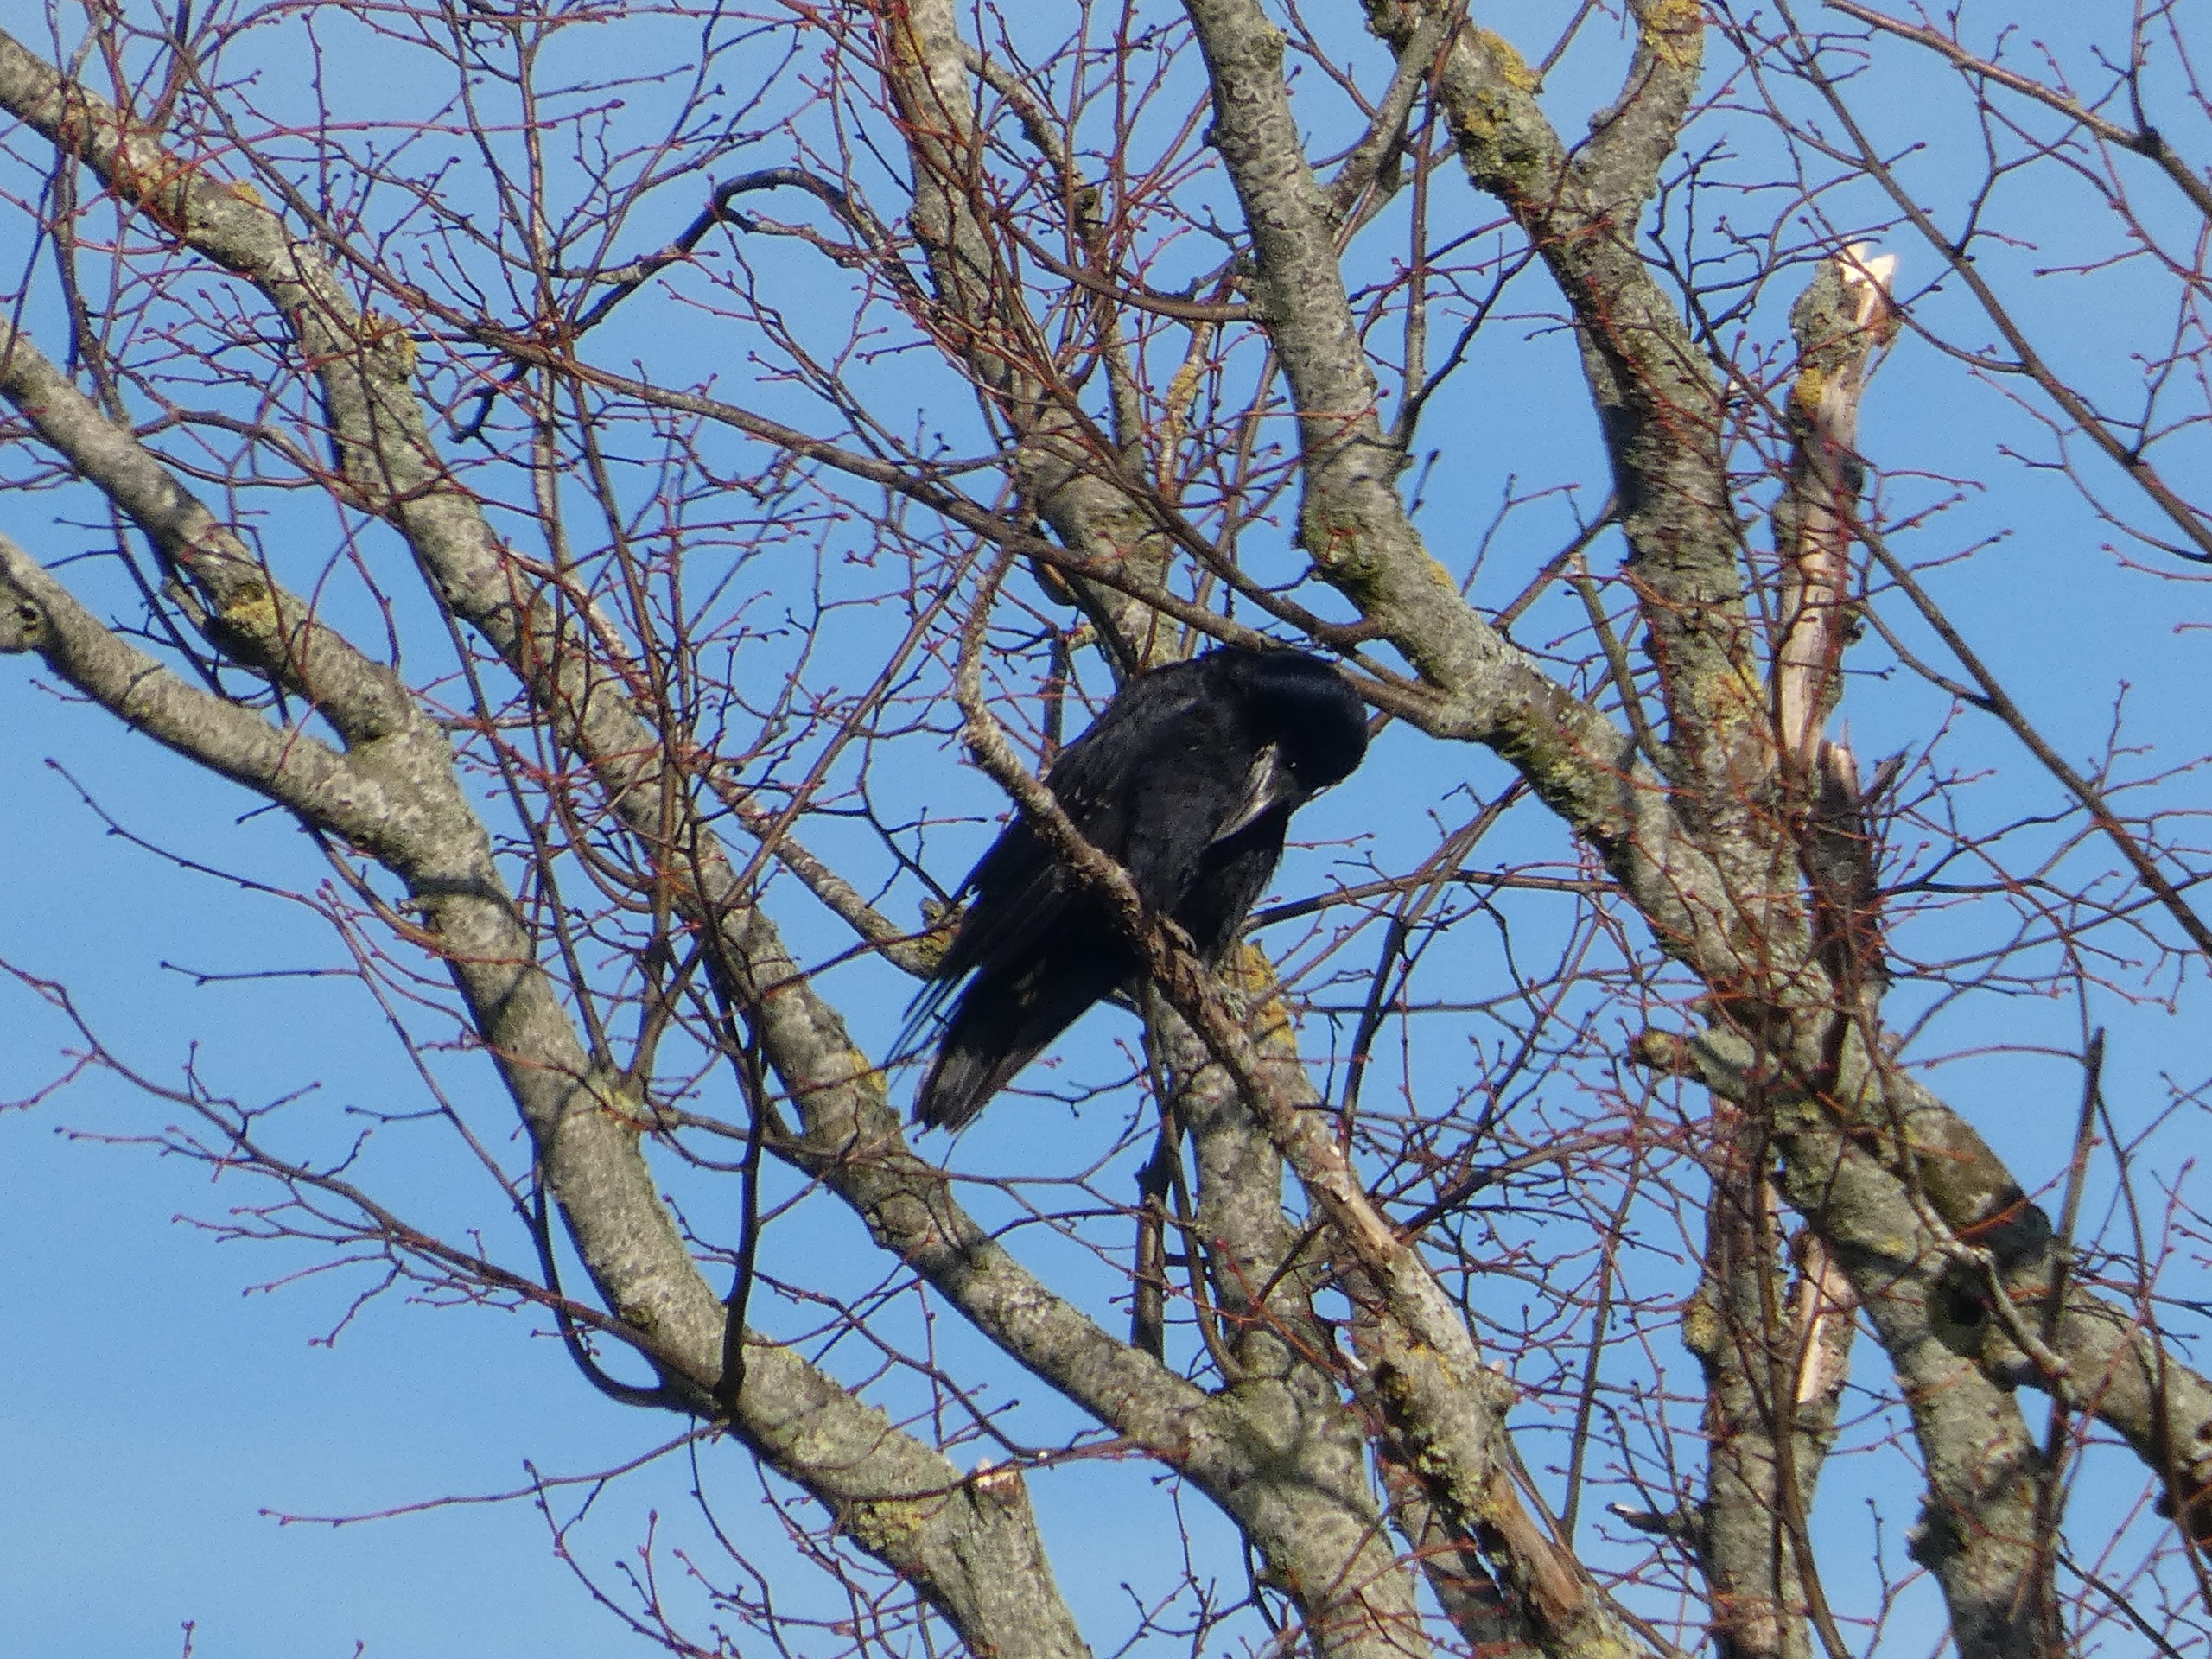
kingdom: Animalia
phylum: Chordata
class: Aves
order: Passeriformes
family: Corvidae
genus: Corvus
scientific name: Corvus frugilegus
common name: Råge
